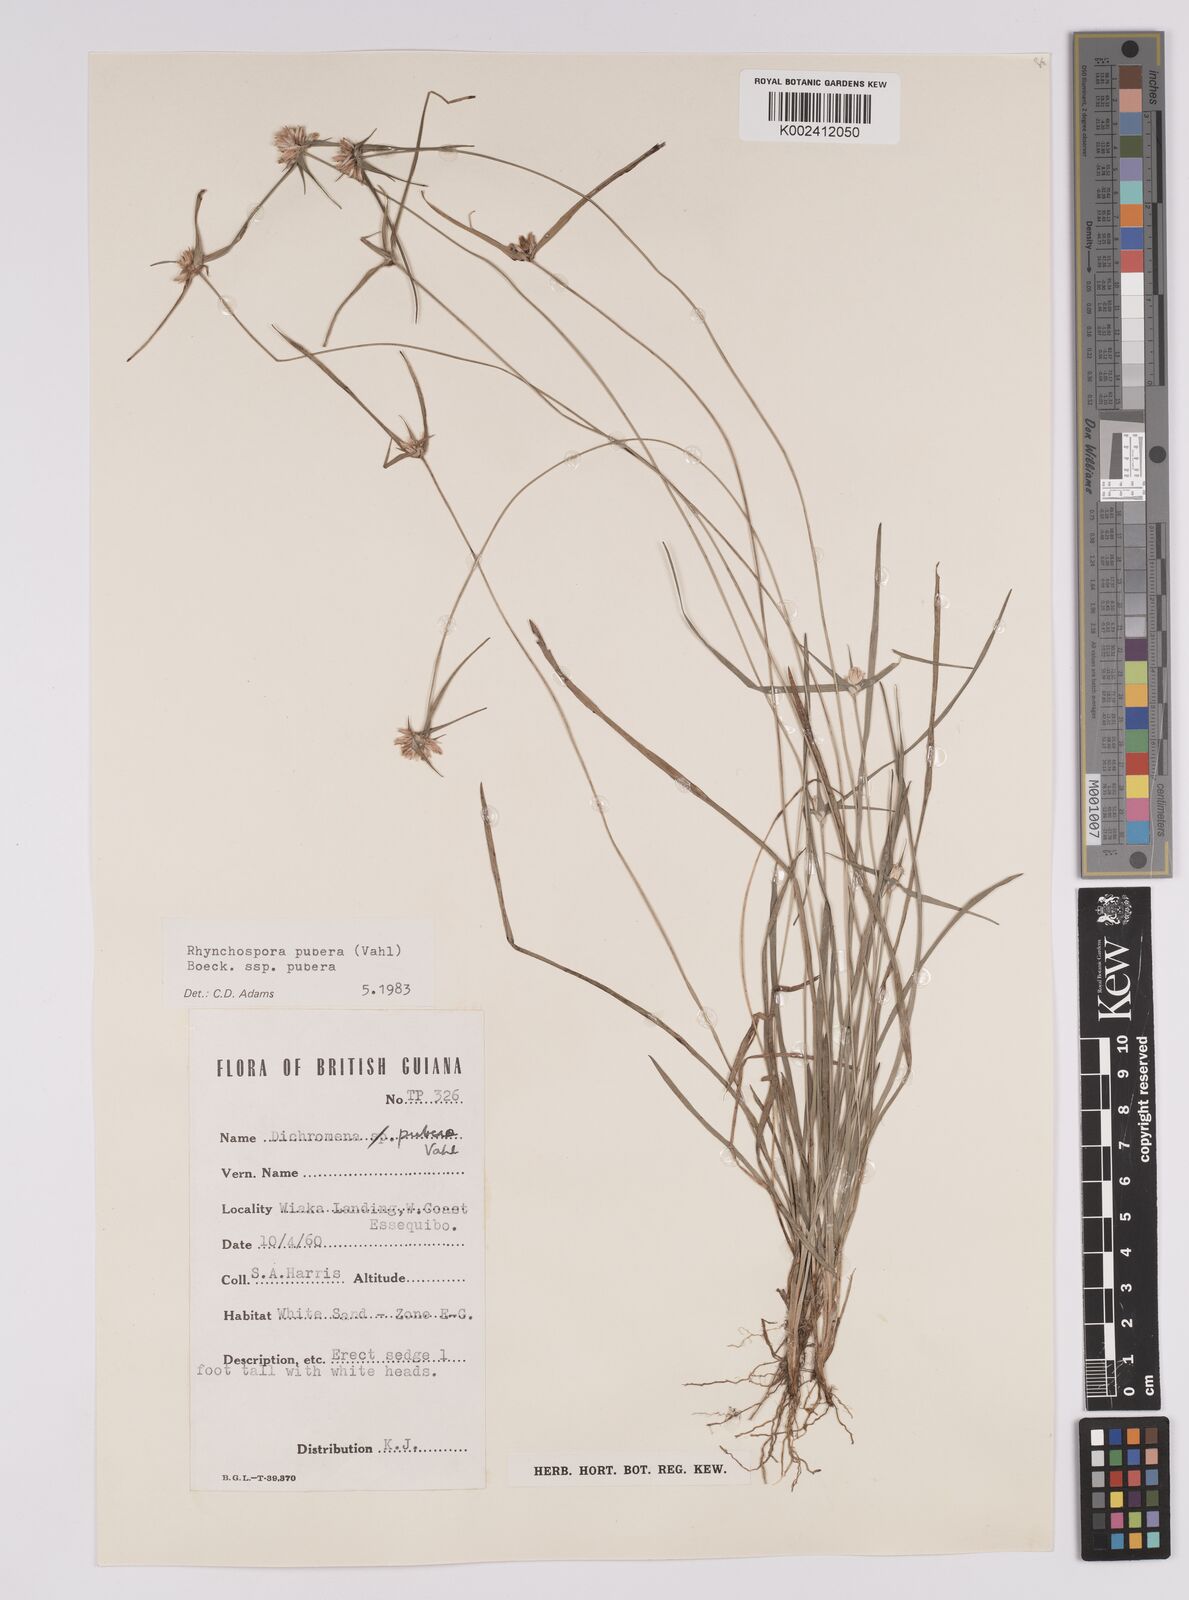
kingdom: Plantae
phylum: Tracheophyta
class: Liliopsida
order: Poales
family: Cyperaceae
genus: Rhynchospora
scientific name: Rhynchospora pubera
